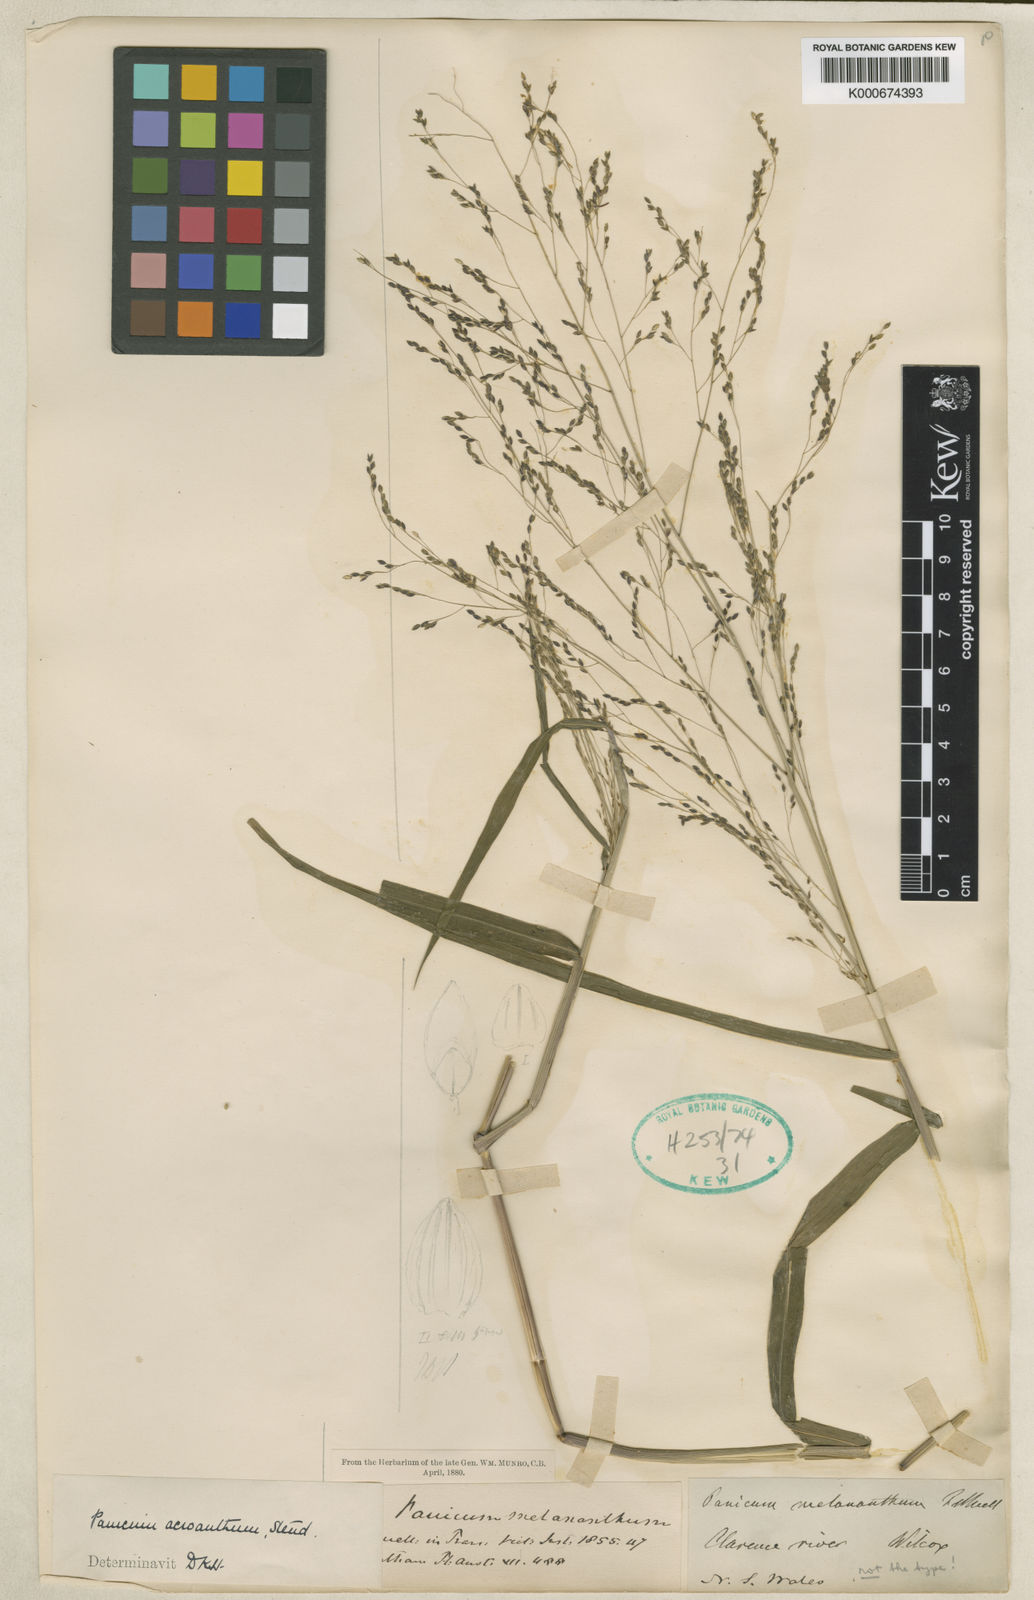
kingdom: Plantae
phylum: Tracheophyta
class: Liliopsida
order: Poales
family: Poaceae
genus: Panicum
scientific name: Panicum bisulcatum
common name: Japanese panicgrass
